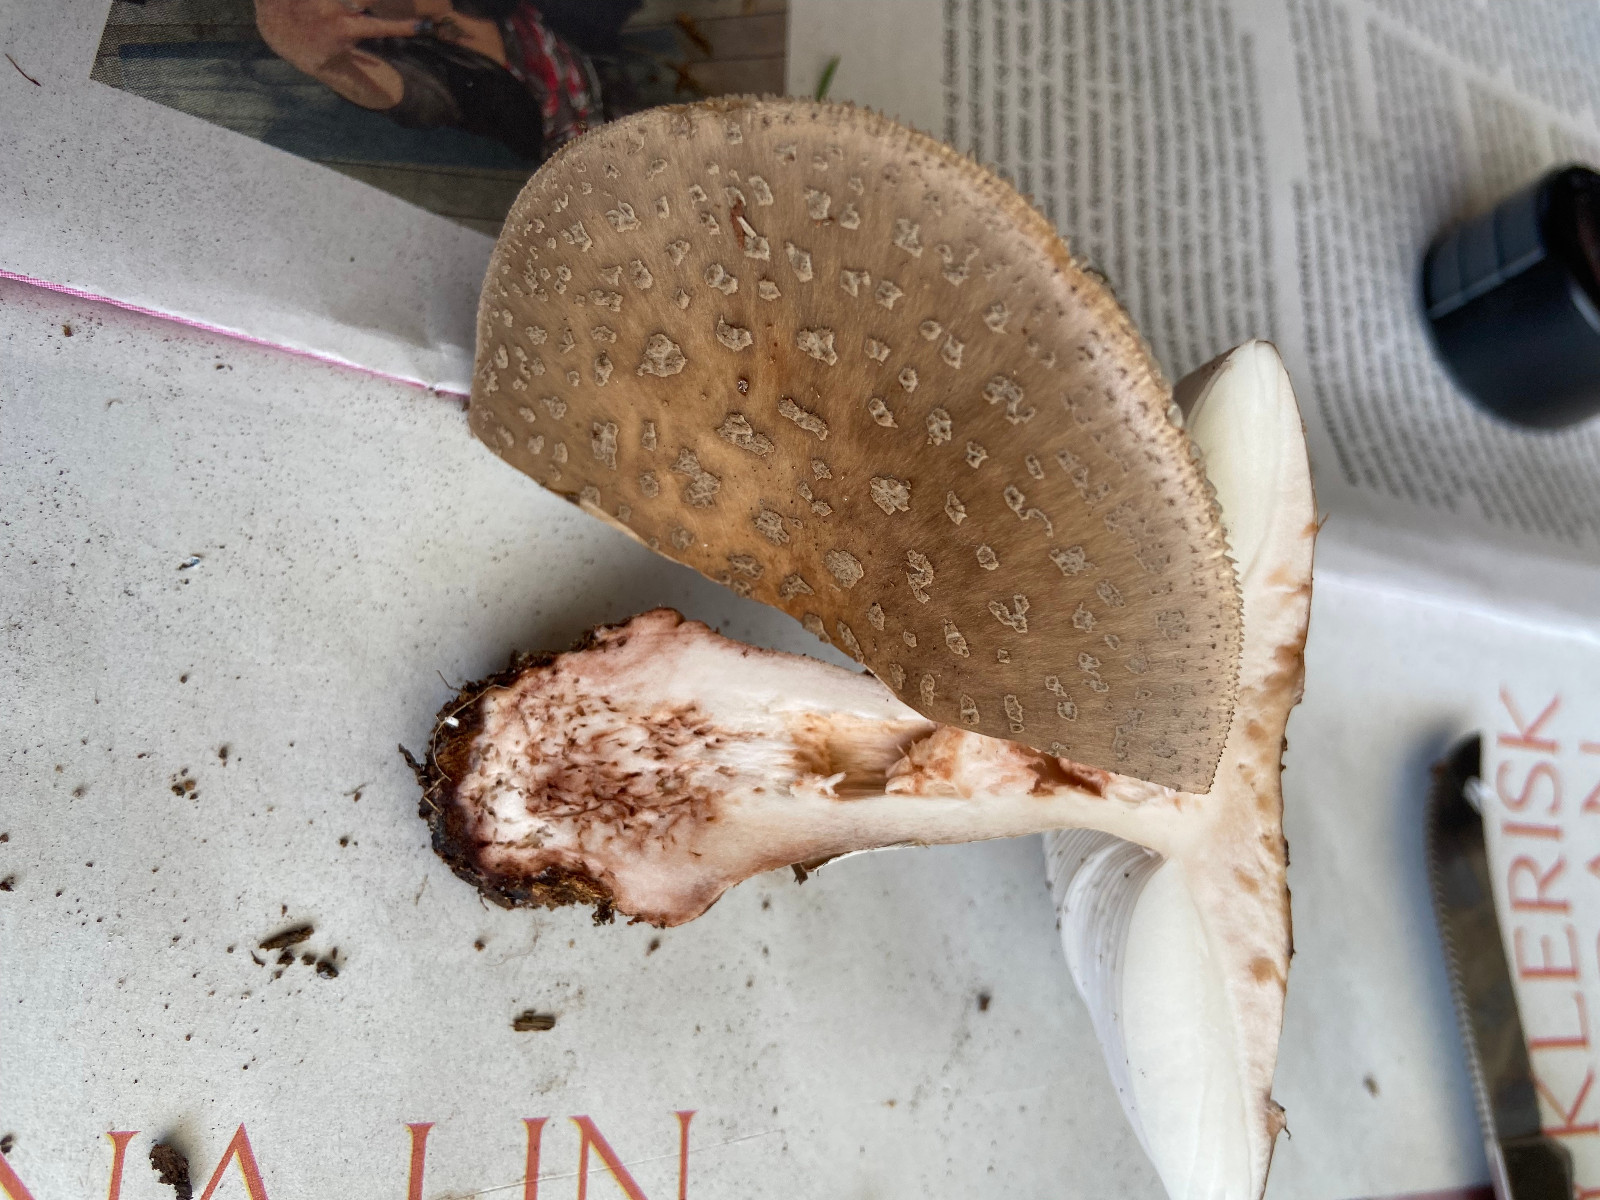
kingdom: Fungi
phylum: Basidiomycota
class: Agaricomycetes
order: Agaricales
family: Amanitaceae
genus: Amanita
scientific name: Amanita rubescens
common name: rødmende fluesvamp
